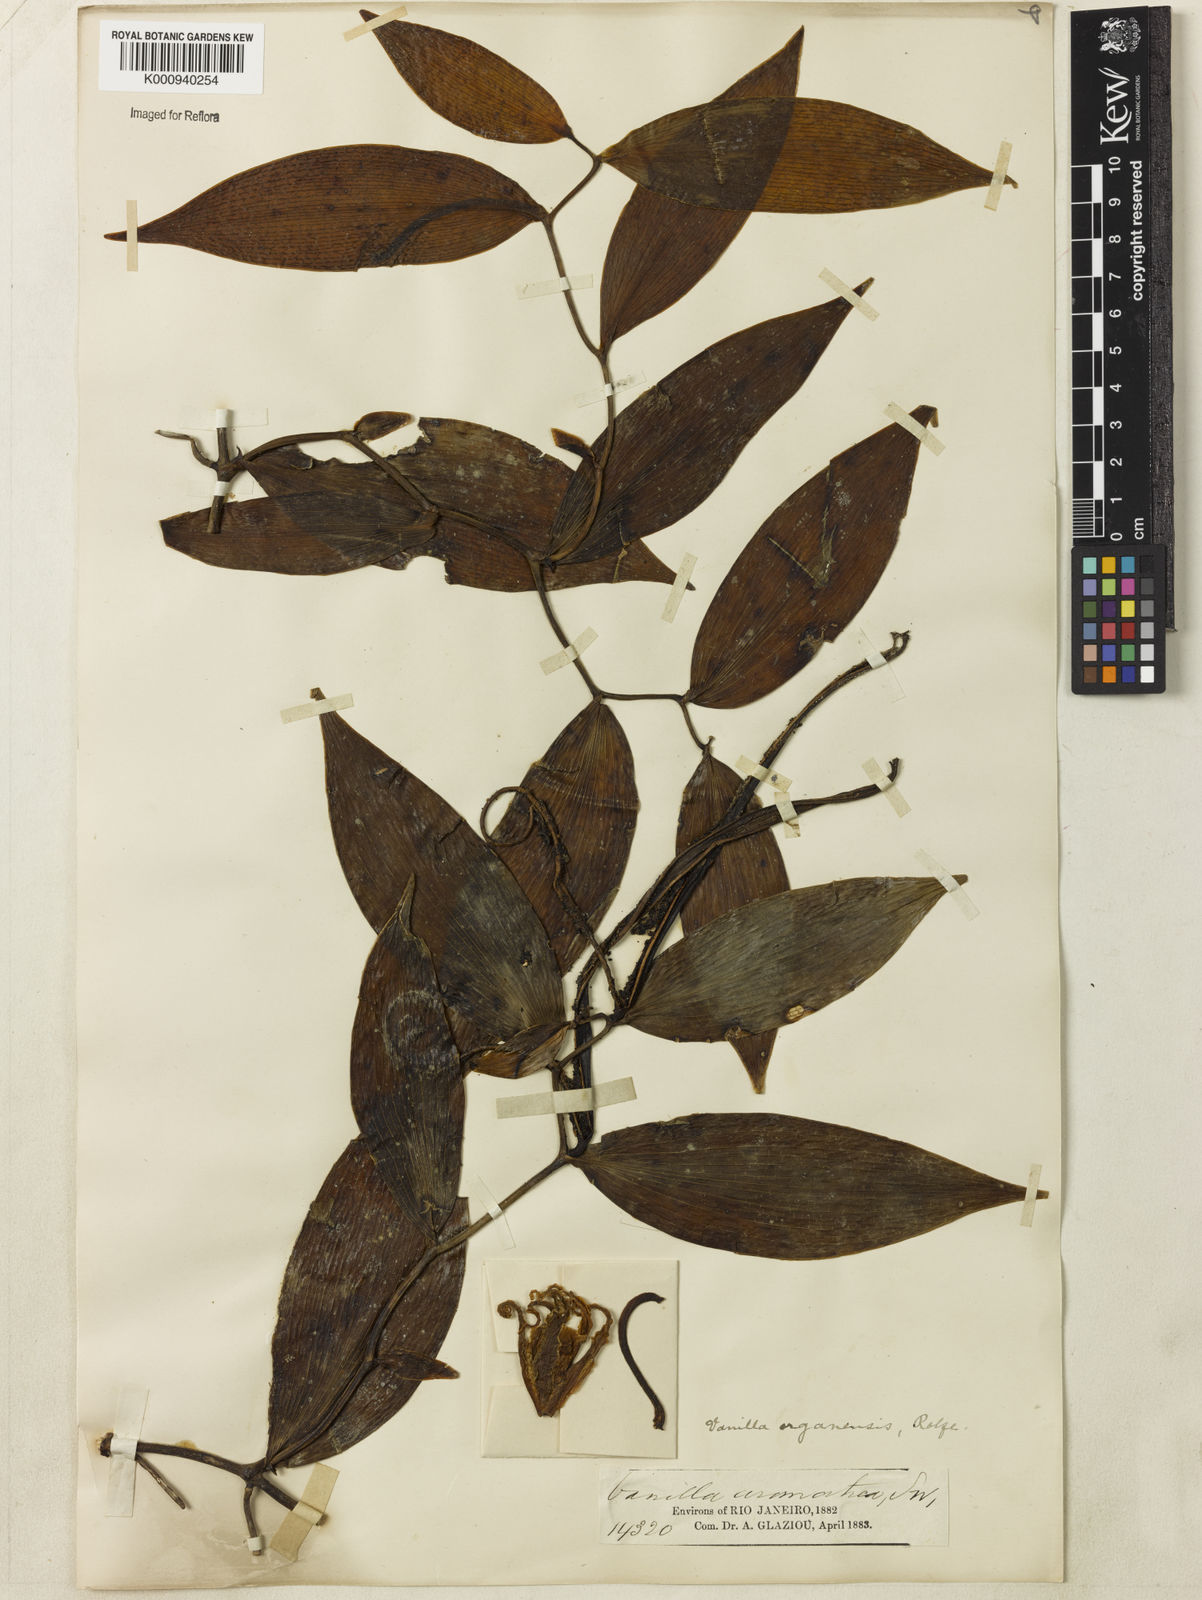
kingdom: Plantae
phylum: Tracheophyta
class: Liliopsida
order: Asparagales
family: Orchidaceae
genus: Vanilla
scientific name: Vanilla acuta
